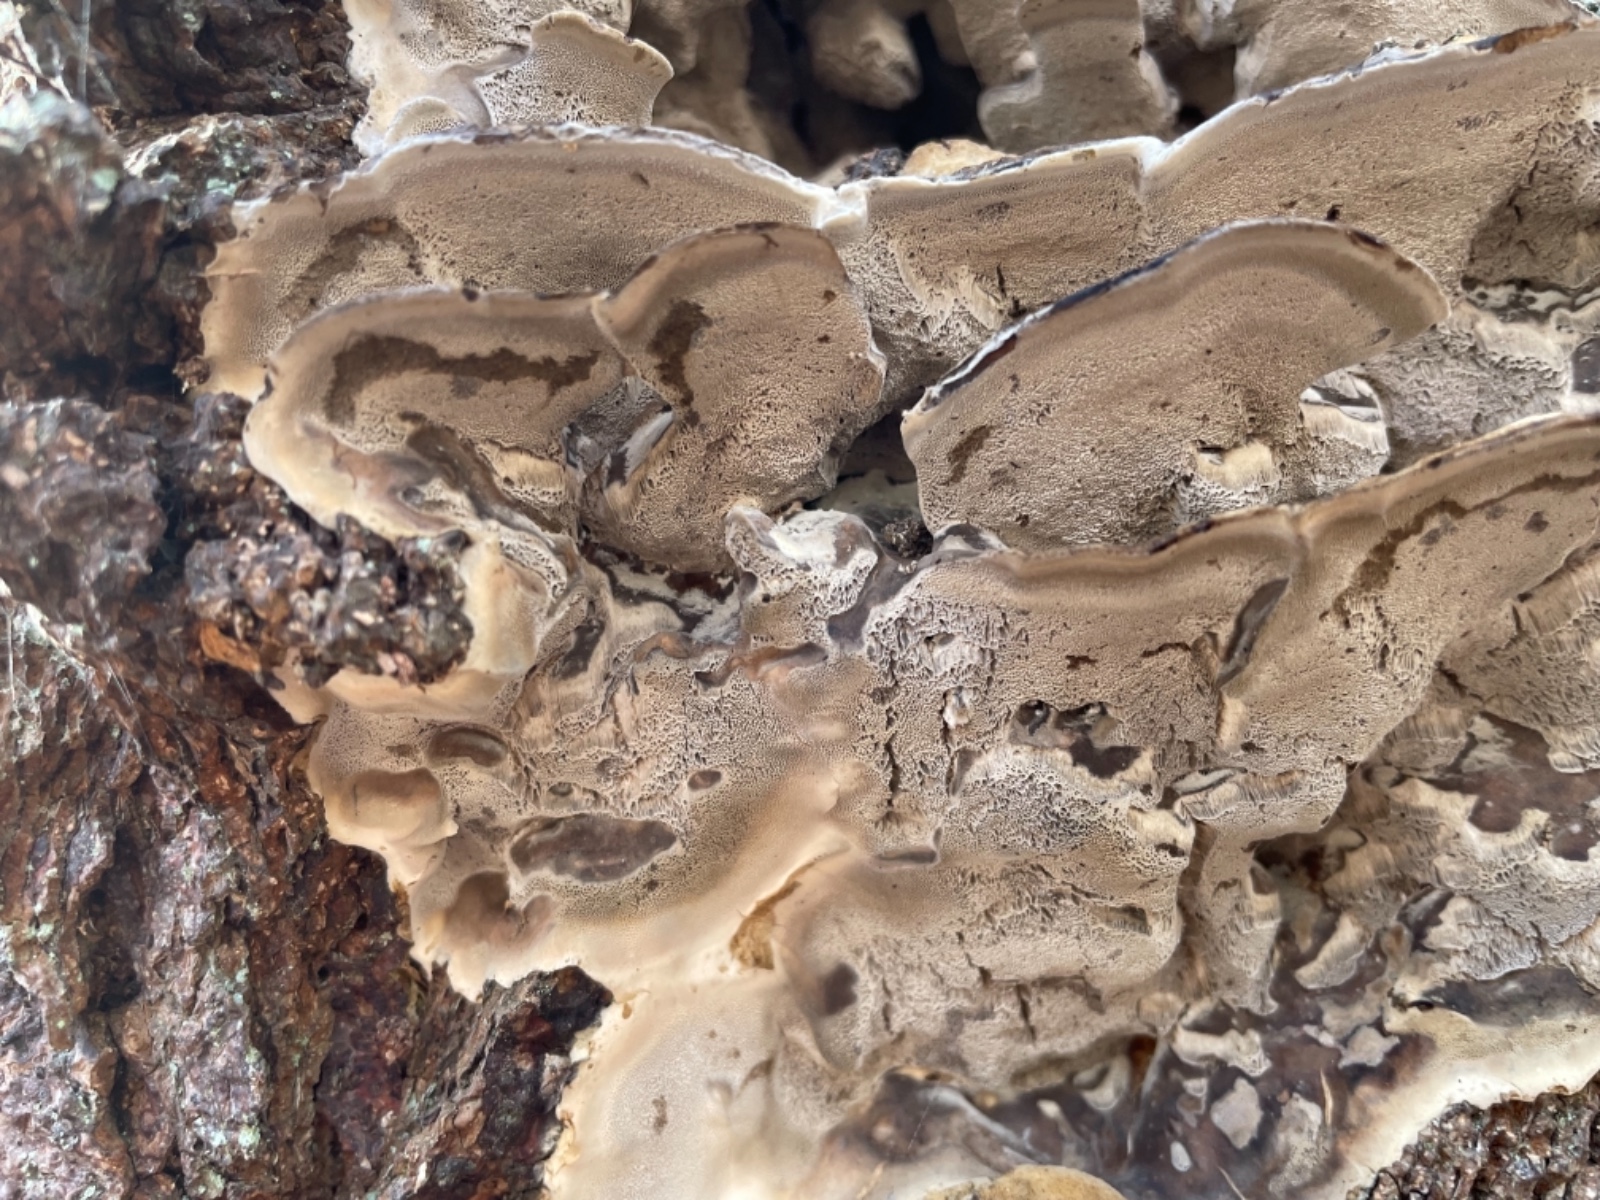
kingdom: Fungi
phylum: Basidiomycota
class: Agaricomycetes
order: Polyporales
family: Phanerochaetaceae
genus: Bjerkandera
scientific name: Bjerkandera fumosa
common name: grågul sodporesvamp
